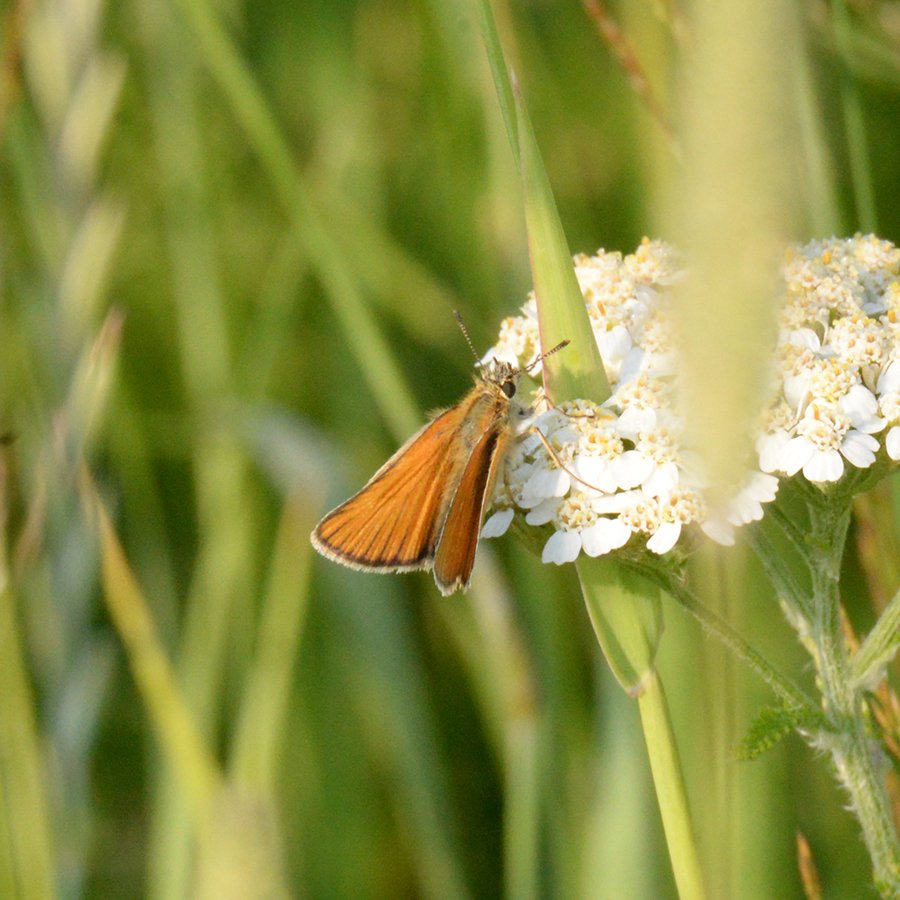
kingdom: Animalia
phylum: Arthropoda
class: Insecta
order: Lepidoptera
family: Hesperiidae
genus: Thymelicus
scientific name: Thymelicus lineola
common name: European Skipper
